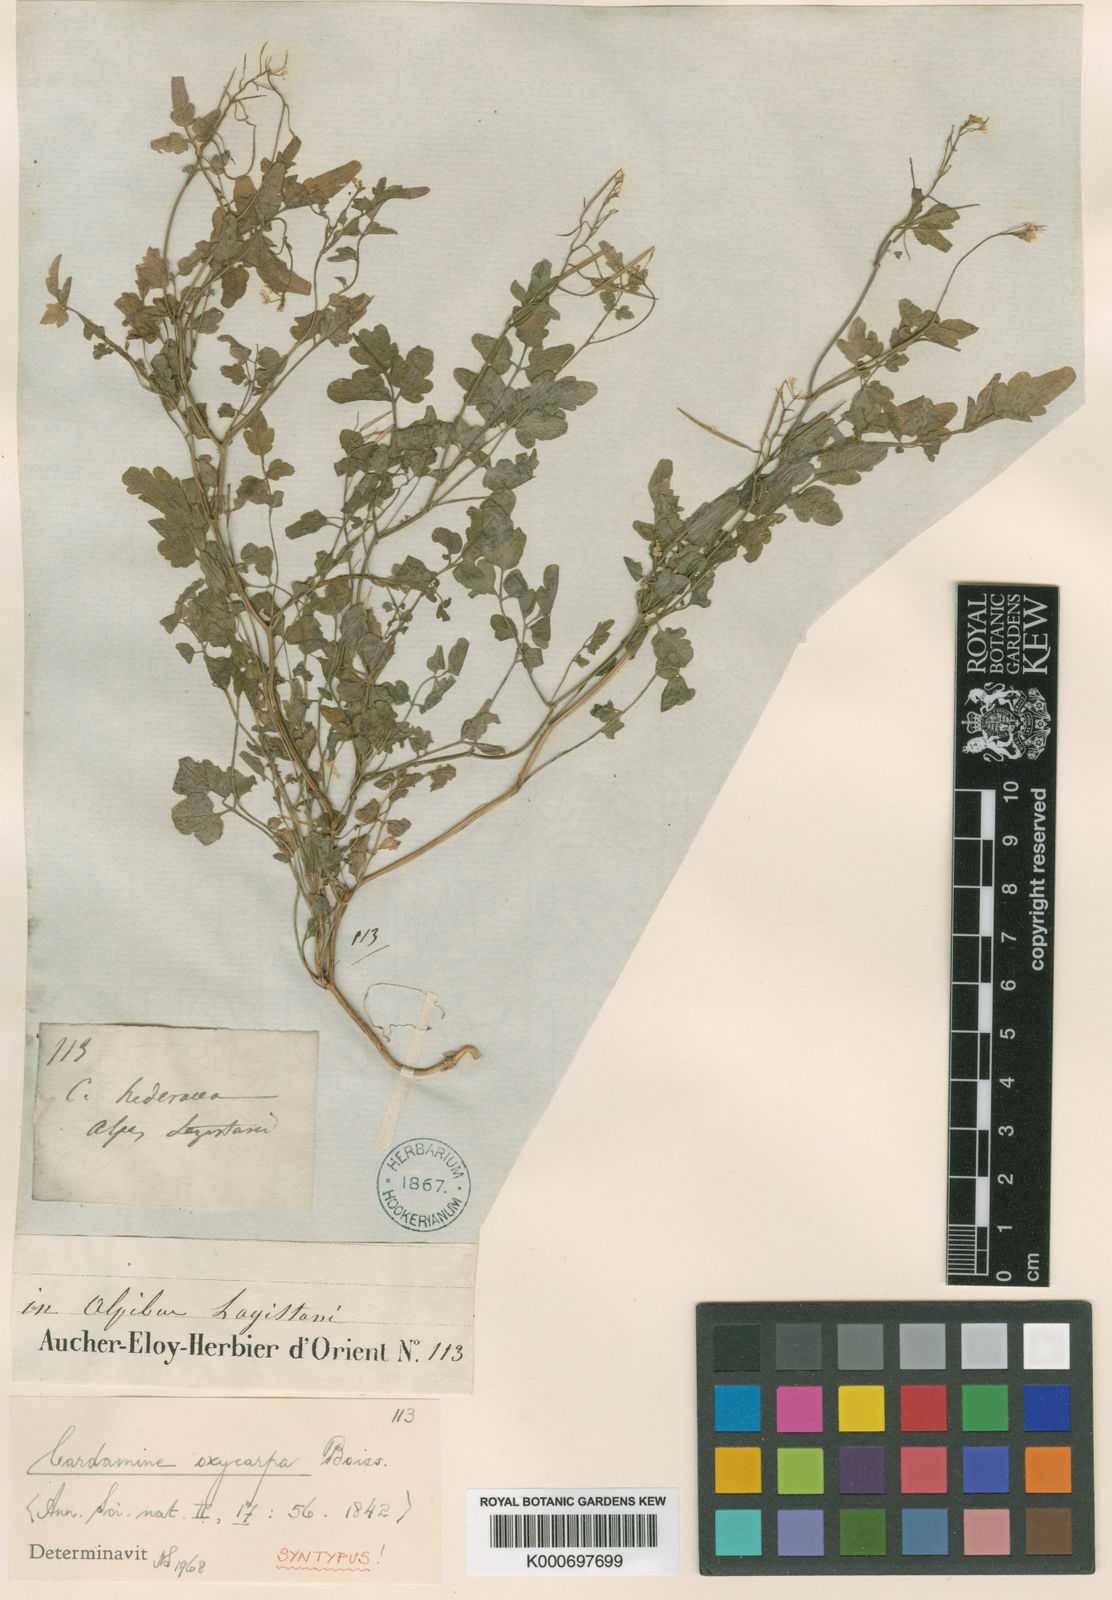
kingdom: Plantae
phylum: Tracheophyta
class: Magnoliopsida
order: Brassicales
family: Brassicaceae
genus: Cardamine
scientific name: Cardamine impatiens
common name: Narrow-leaved bitter-cress
